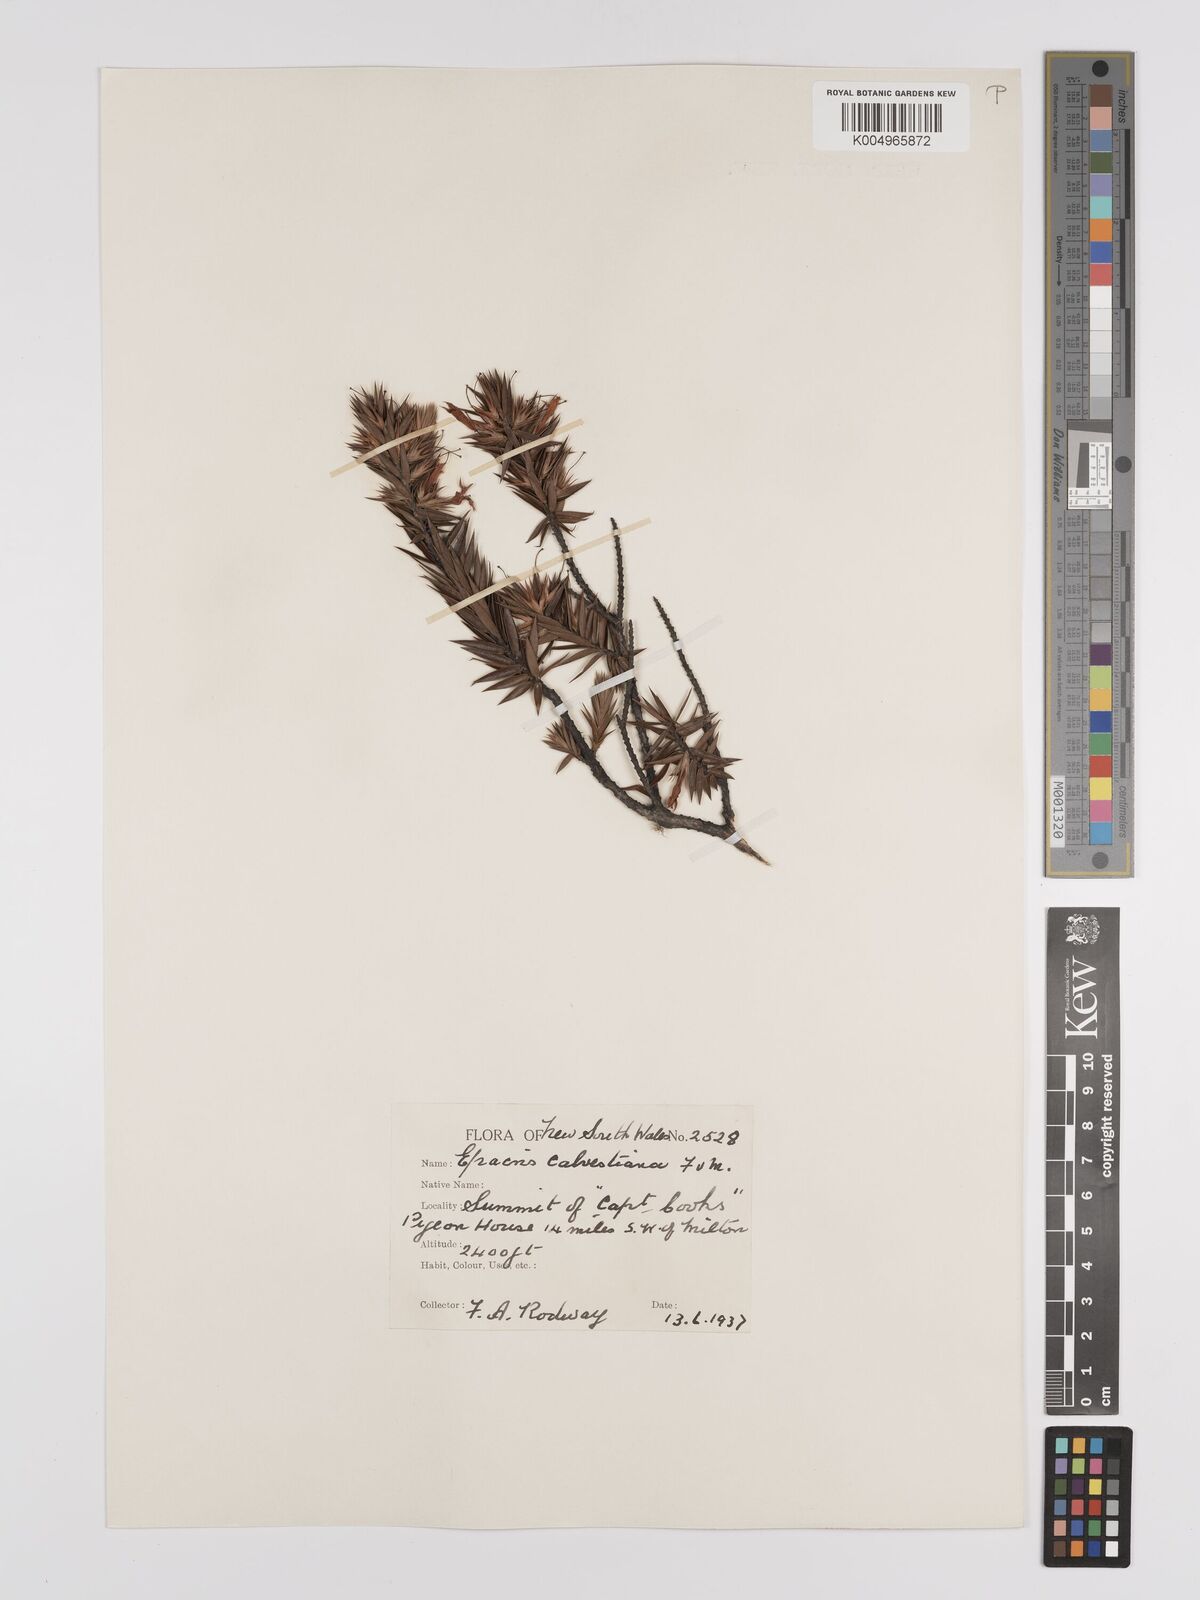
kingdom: Plantae
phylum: Tracheophyta
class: Magnoliopsida
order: Ericales
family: Ericaceae
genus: Epacris
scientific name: Epacris calvertiana
